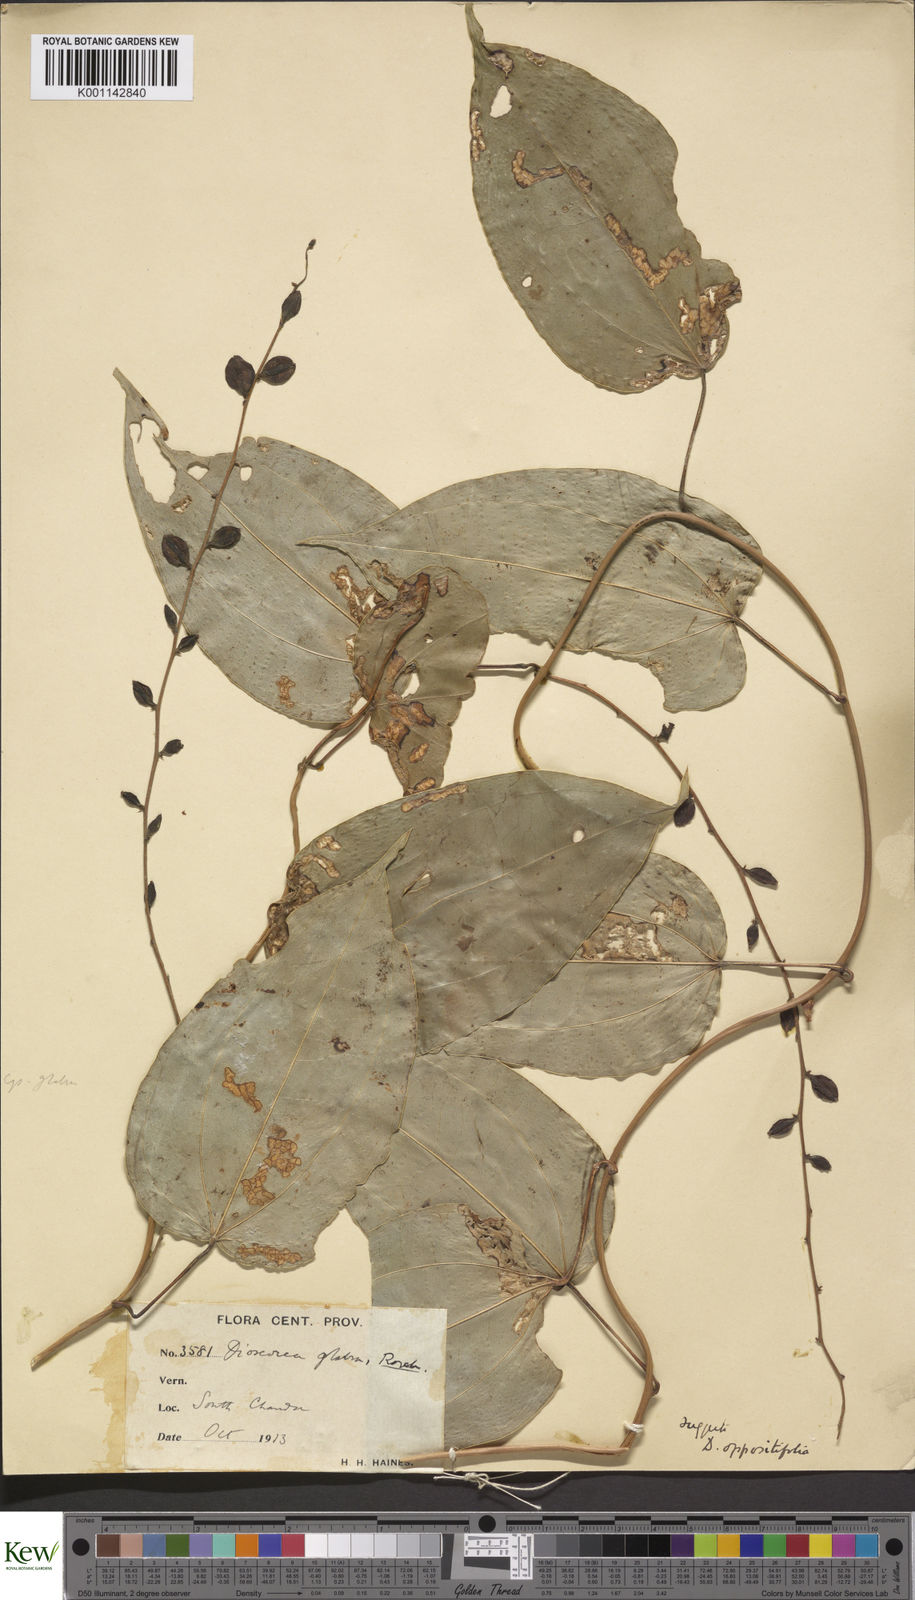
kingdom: Plantae
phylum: Tracheophyta
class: Liliopsida
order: Dioscoreales
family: Dioscoreaceae
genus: Dioscorea
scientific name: Dioscorea glabra
